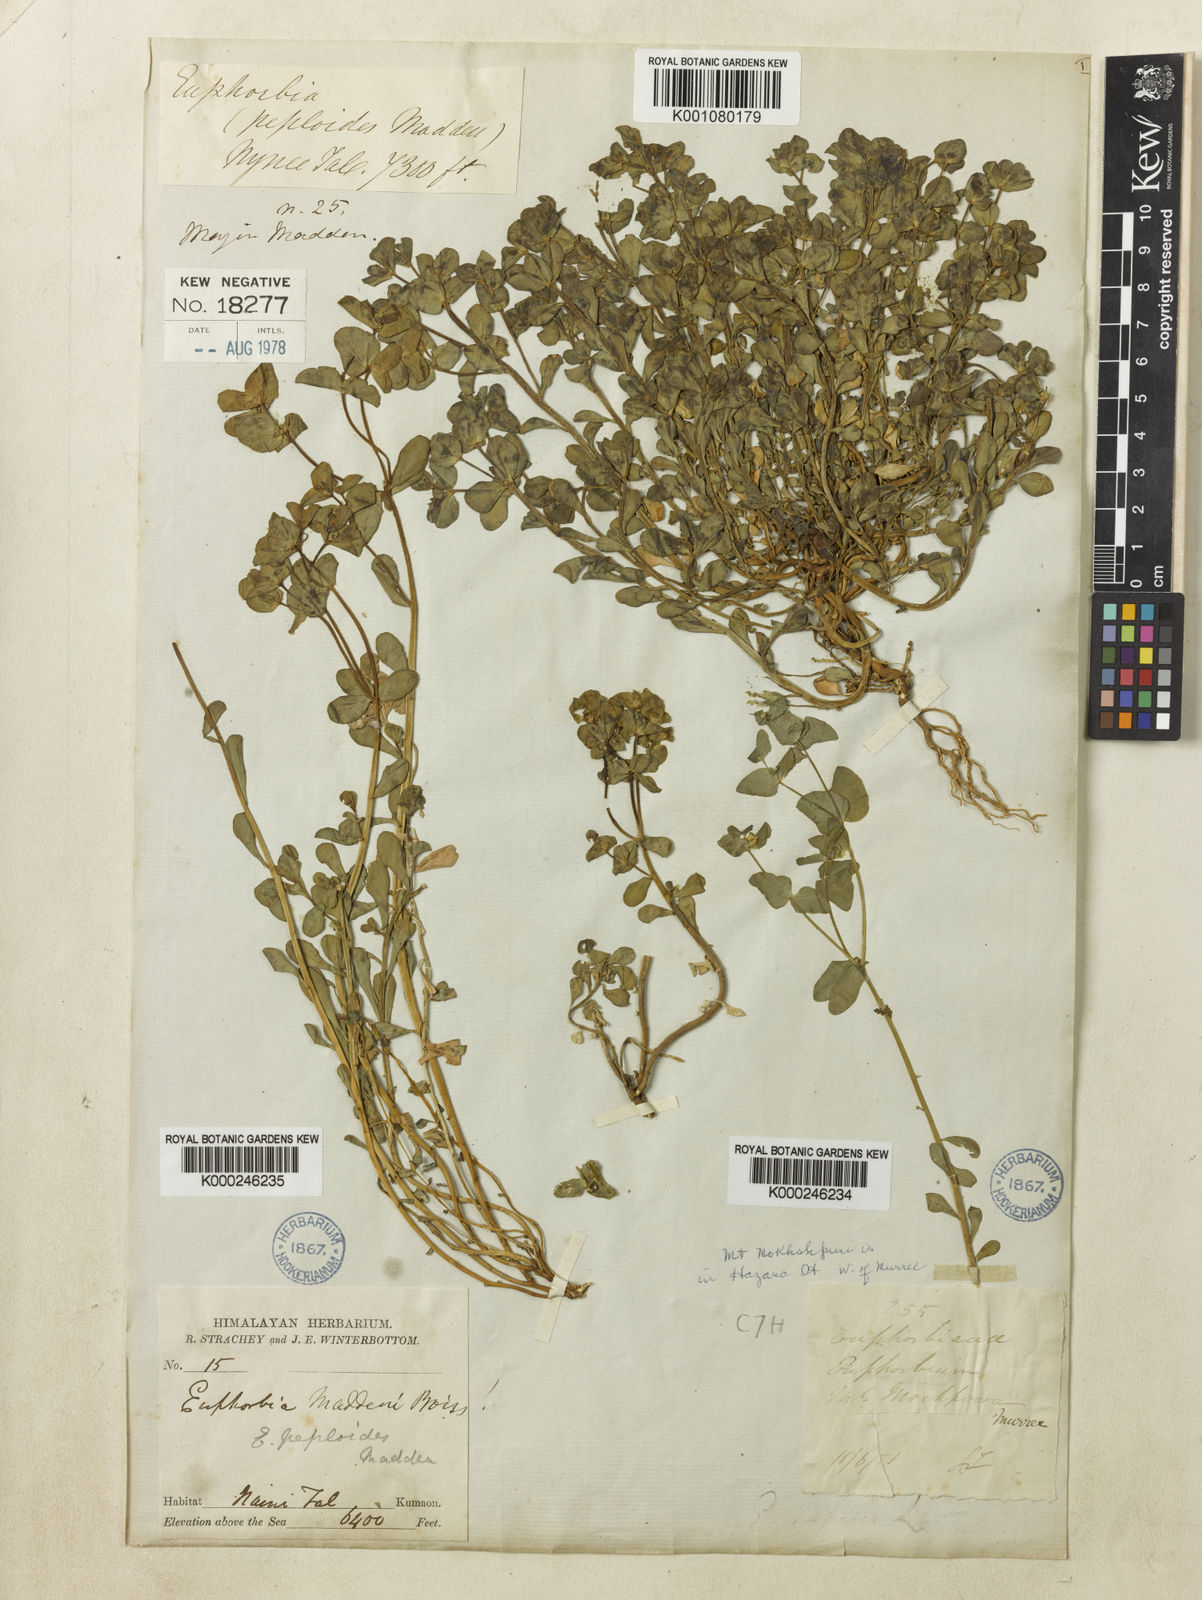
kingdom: Plantae
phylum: Tracheophyta
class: Magnoliopsida
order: Malpighiales
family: Euphorbiaceae
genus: Euphorbia
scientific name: Euphorbia maddenii
